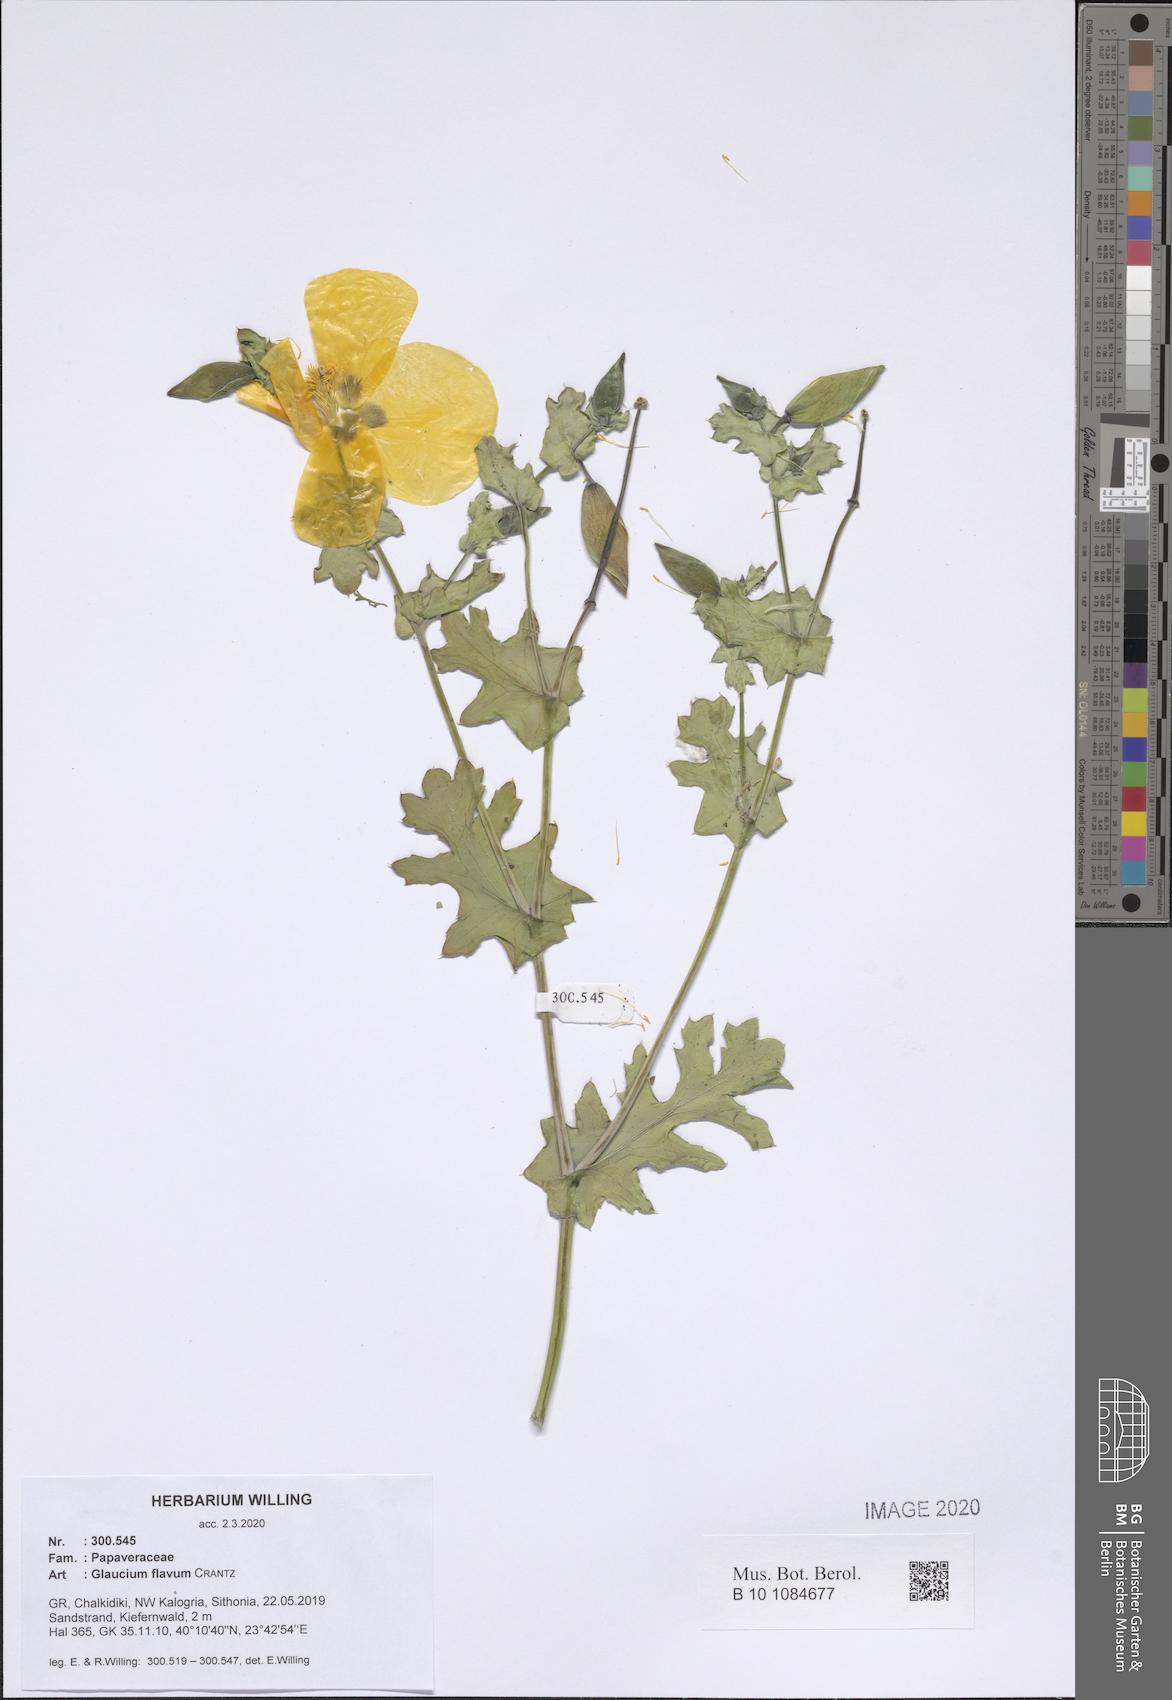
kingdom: Plantae
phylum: Tracheophyta
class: Magnoliopsida
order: Ranunculales
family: Papaveraceae
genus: Glaucium
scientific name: Glaucium flavum
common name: Yellow horned-poppy
